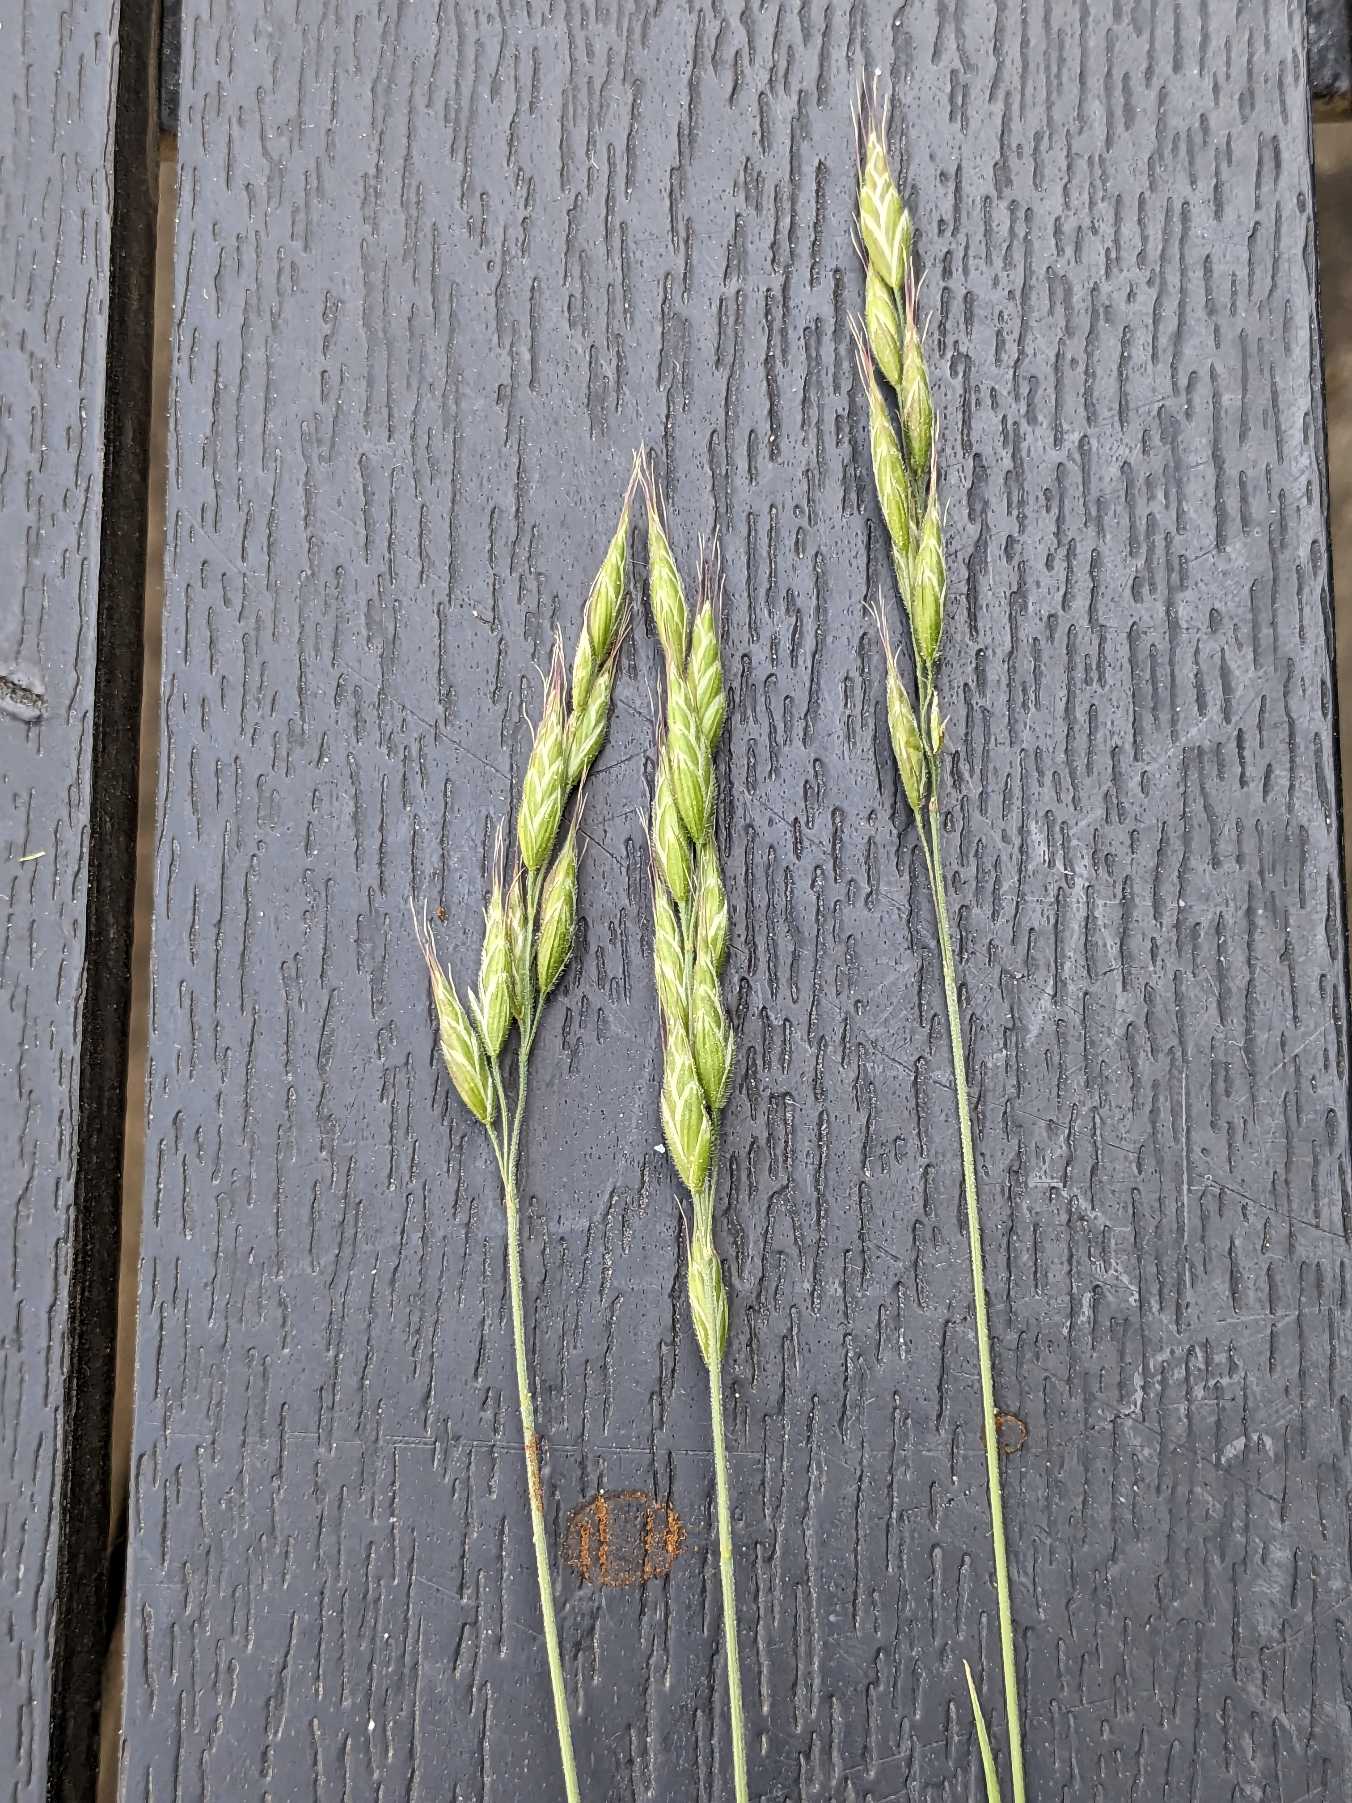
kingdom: Plantae
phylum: Tracheophyta
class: Liliopsida
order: Poales
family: Poaceae
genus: Bromus
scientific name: Bromus hordeaceus
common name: Blød hejre
